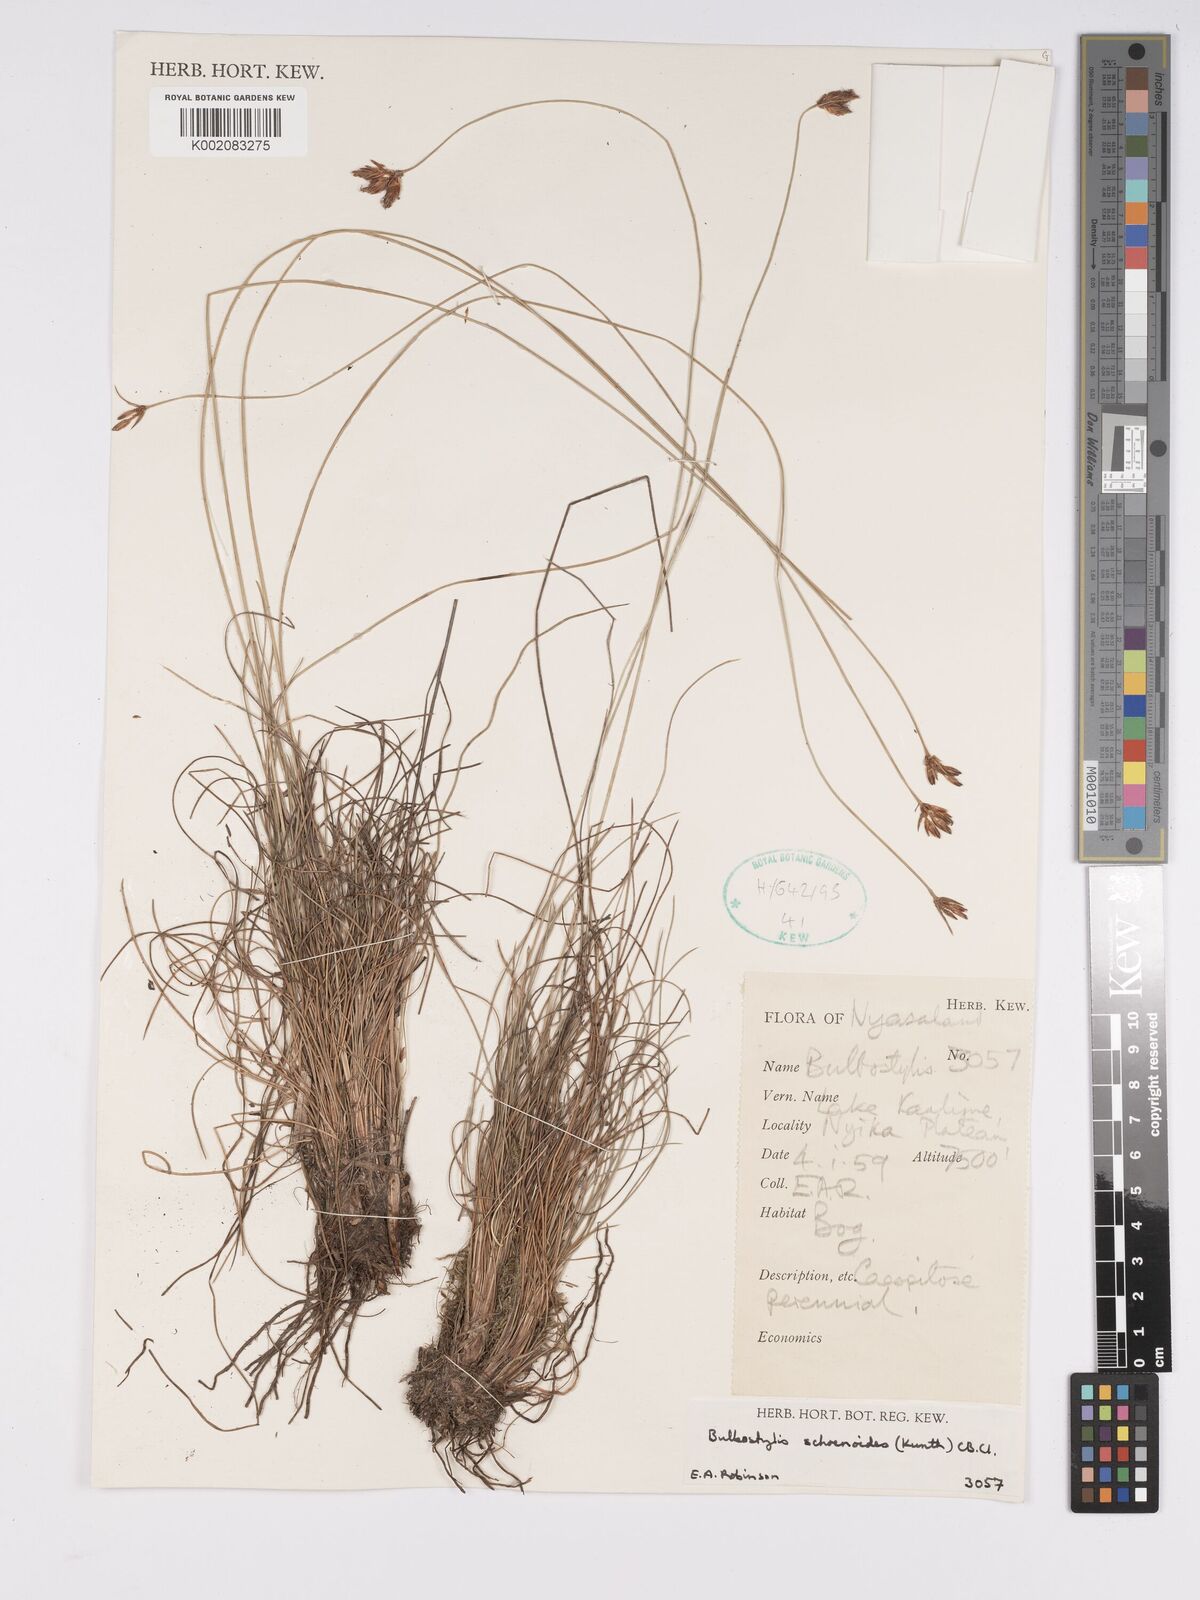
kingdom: Plantae
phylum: Tracheophyta
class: Liliopsida
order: Poales
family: Cyperaceae
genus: Bulbostylis
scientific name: Bulbostylis schoenoides
